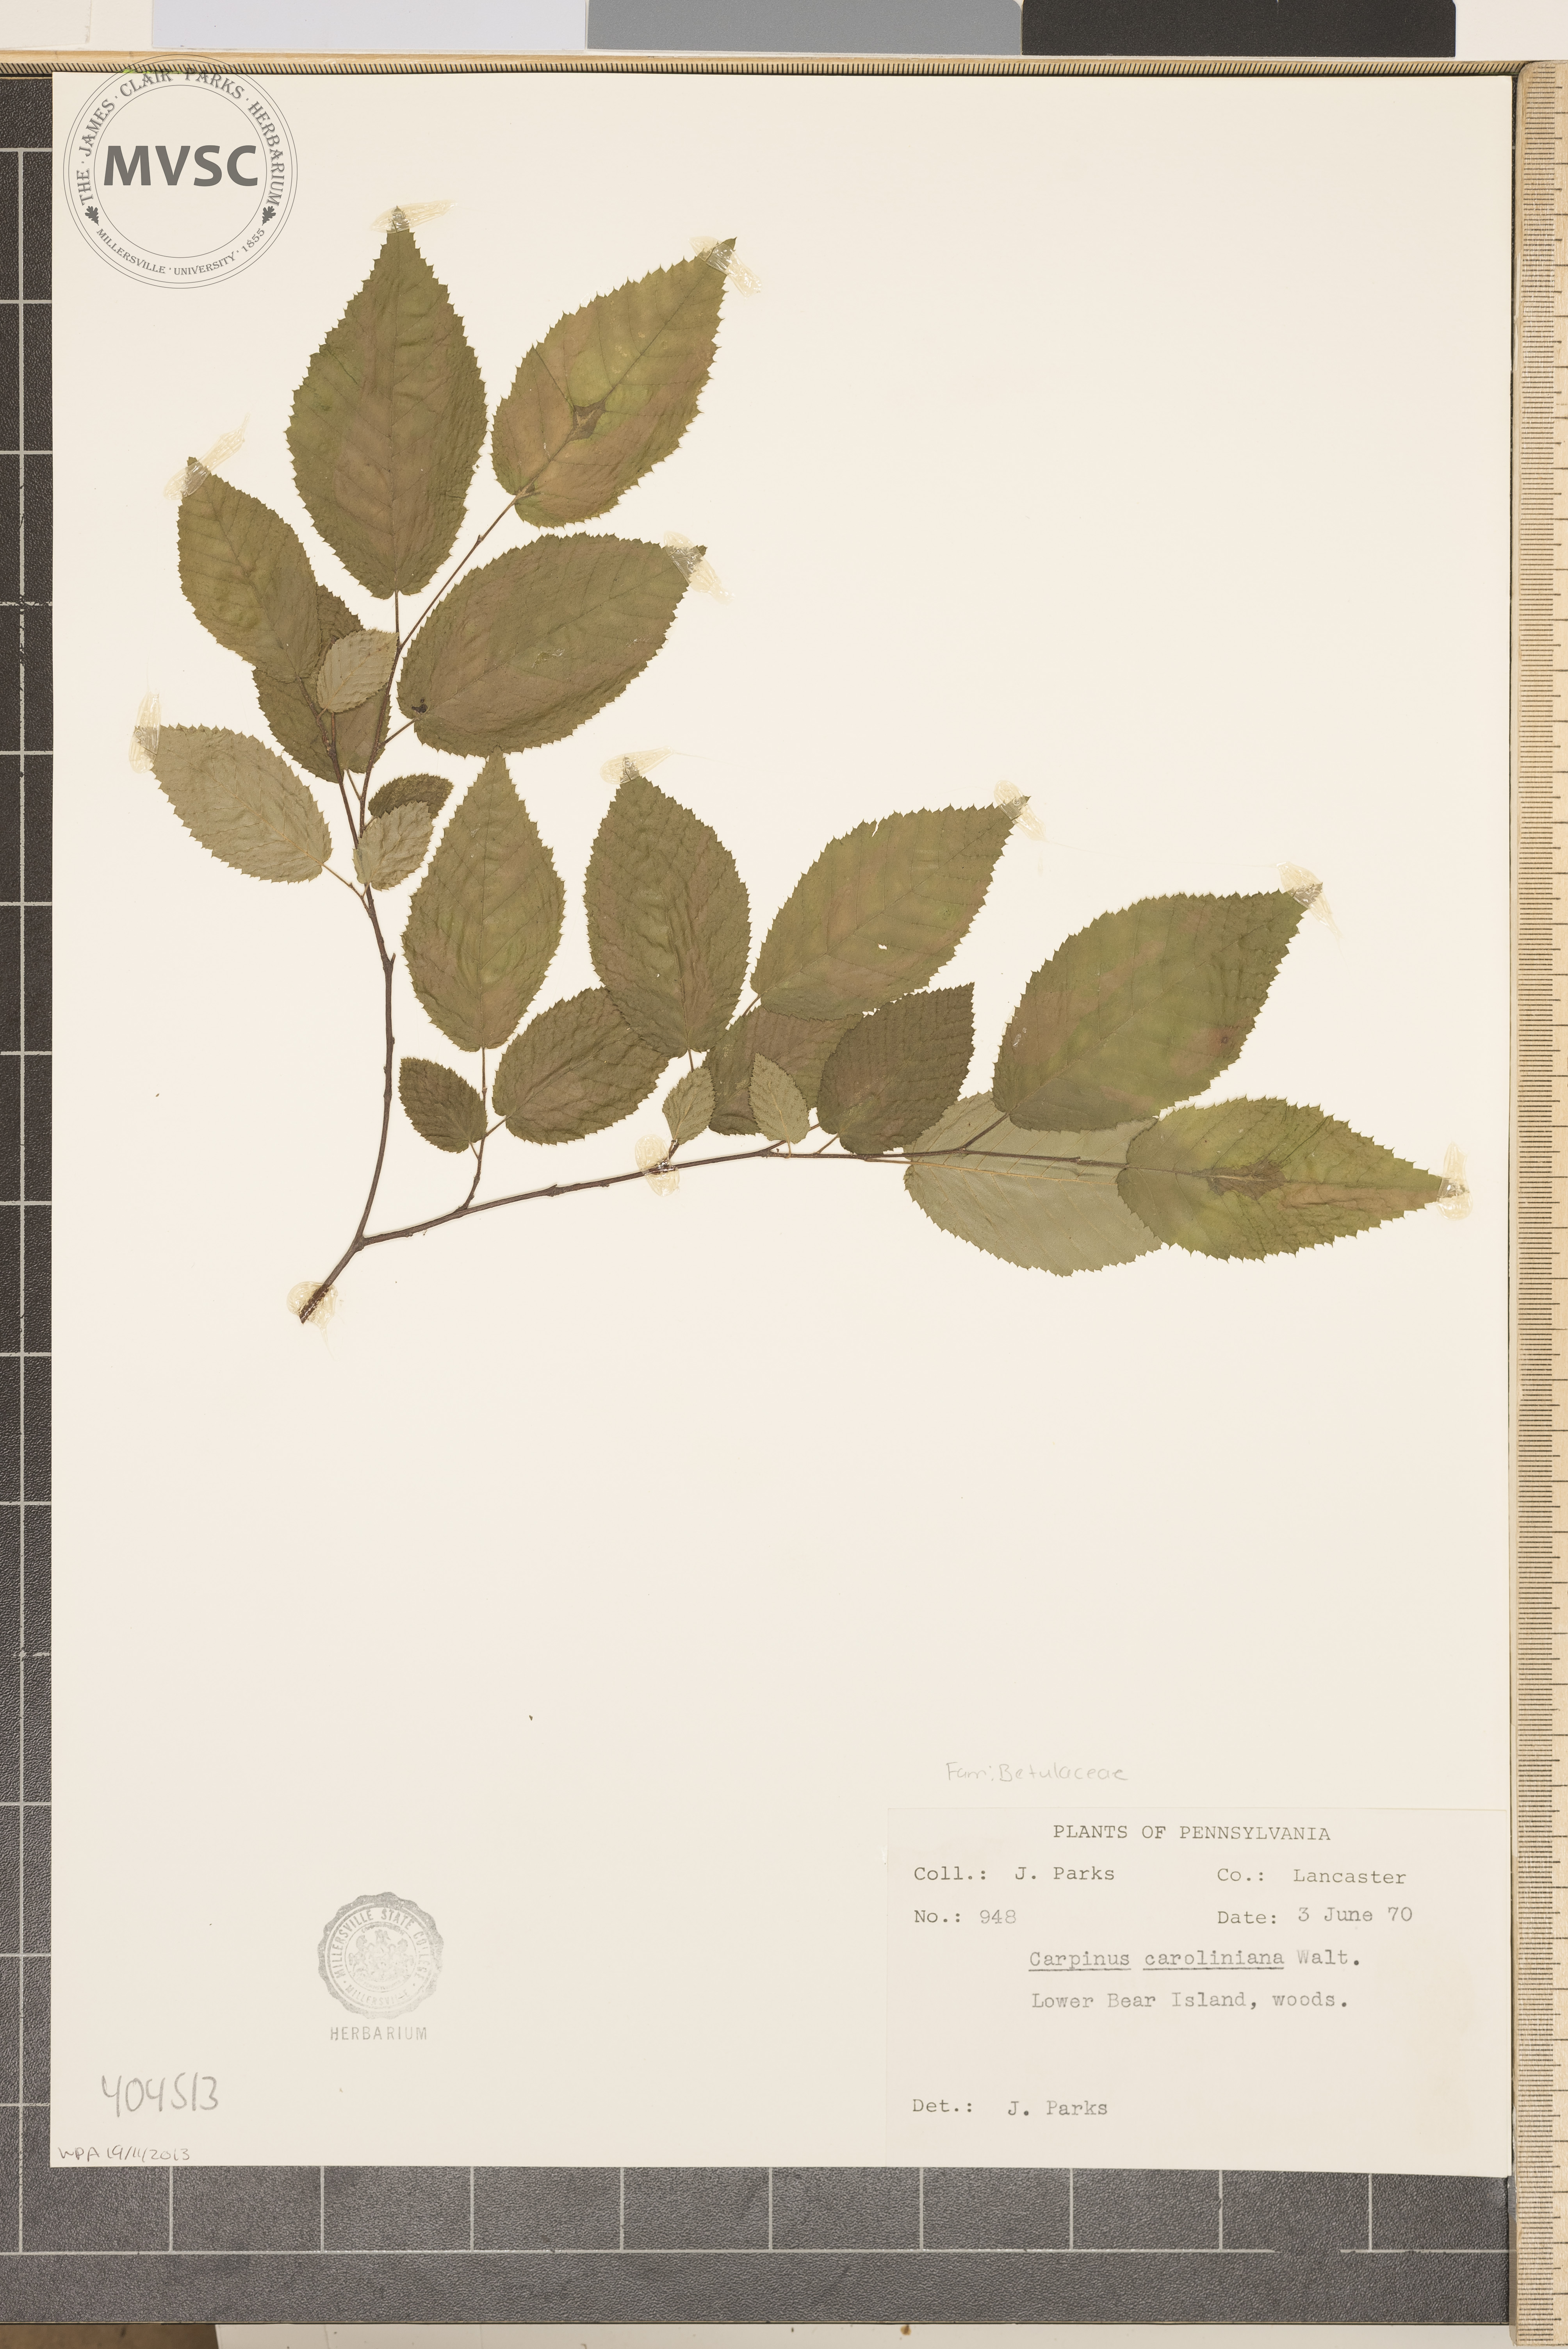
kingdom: Plantae
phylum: Tracheophyta
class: Magnoliopsida
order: Fagales
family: Betulaceae
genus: Carpinus
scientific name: Carpinus caroliniana
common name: American hornbeam
